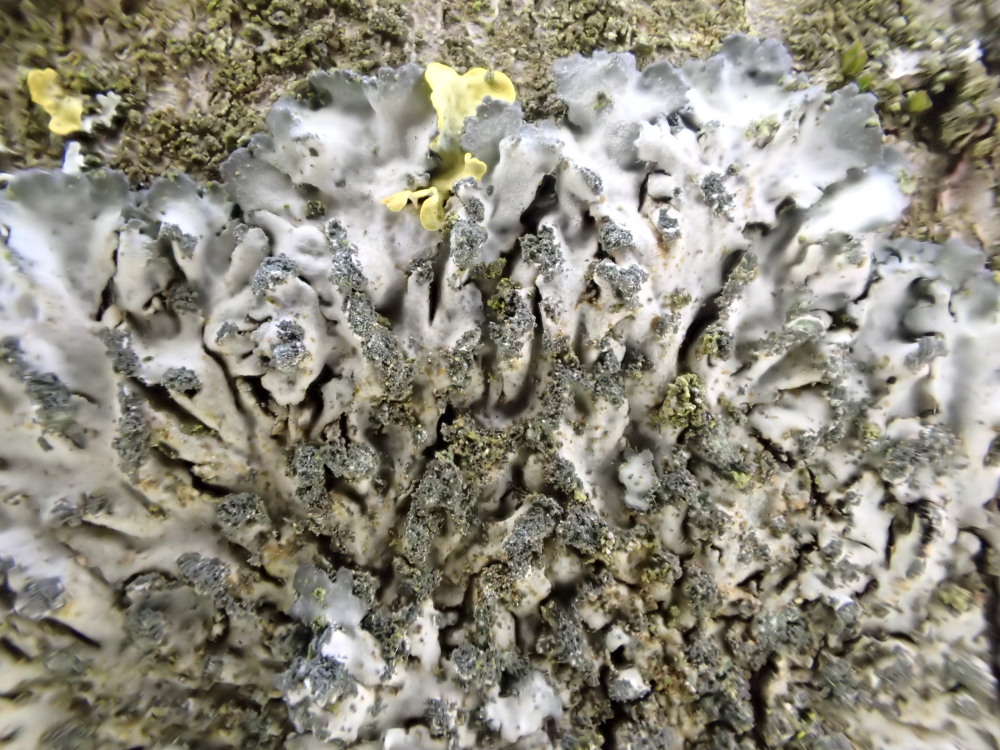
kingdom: Fungi
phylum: Ascomycota
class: Lecanoromycetes
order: Caliciales
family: Physciaceae
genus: Phaeophyscia
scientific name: Phaeophyscia orbicularis
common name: grågrøn rosetlav
